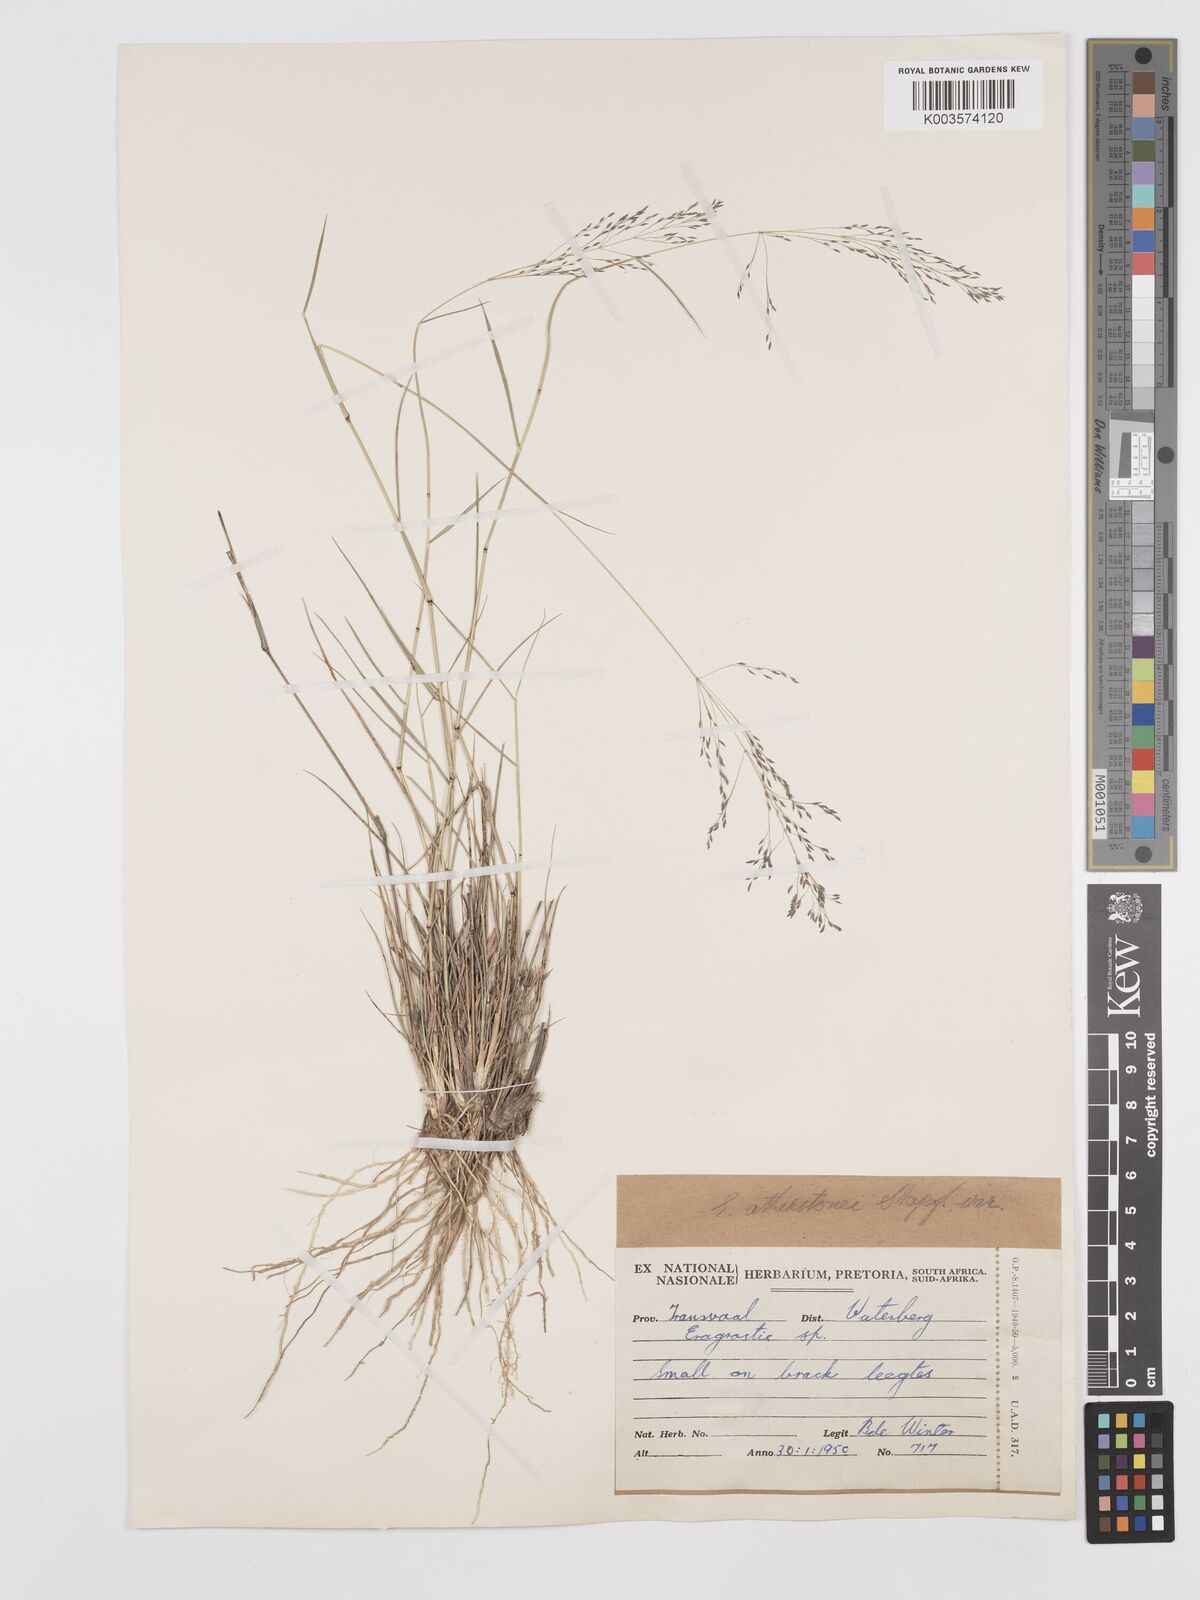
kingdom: Plantae
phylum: Tracheophyta
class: Liliopsida
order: Poales
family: Poaceae
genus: Eragrostis
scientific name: Eragrostis cylindriflora
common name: Cylinderflower lovegrass
